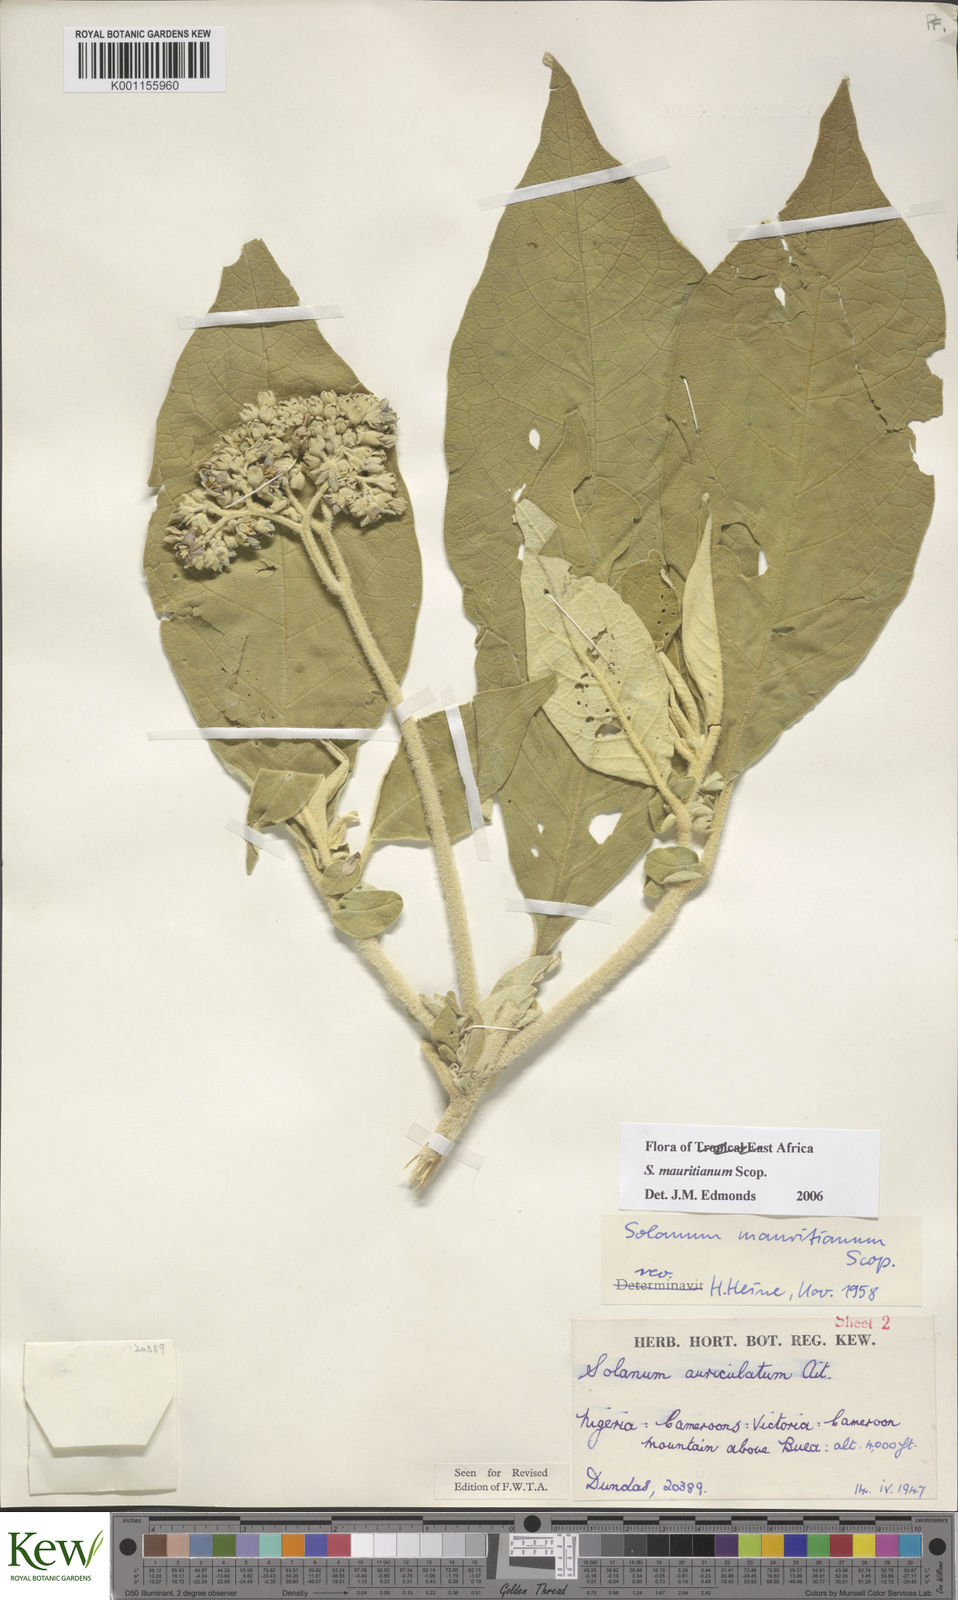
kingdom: Plantae
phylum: Tracheophyta
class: Magnoliopsida
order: Solanales
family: Solanaceae
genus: Solanum
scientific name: Solanum mauritianum
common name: Earleaf nightshade
